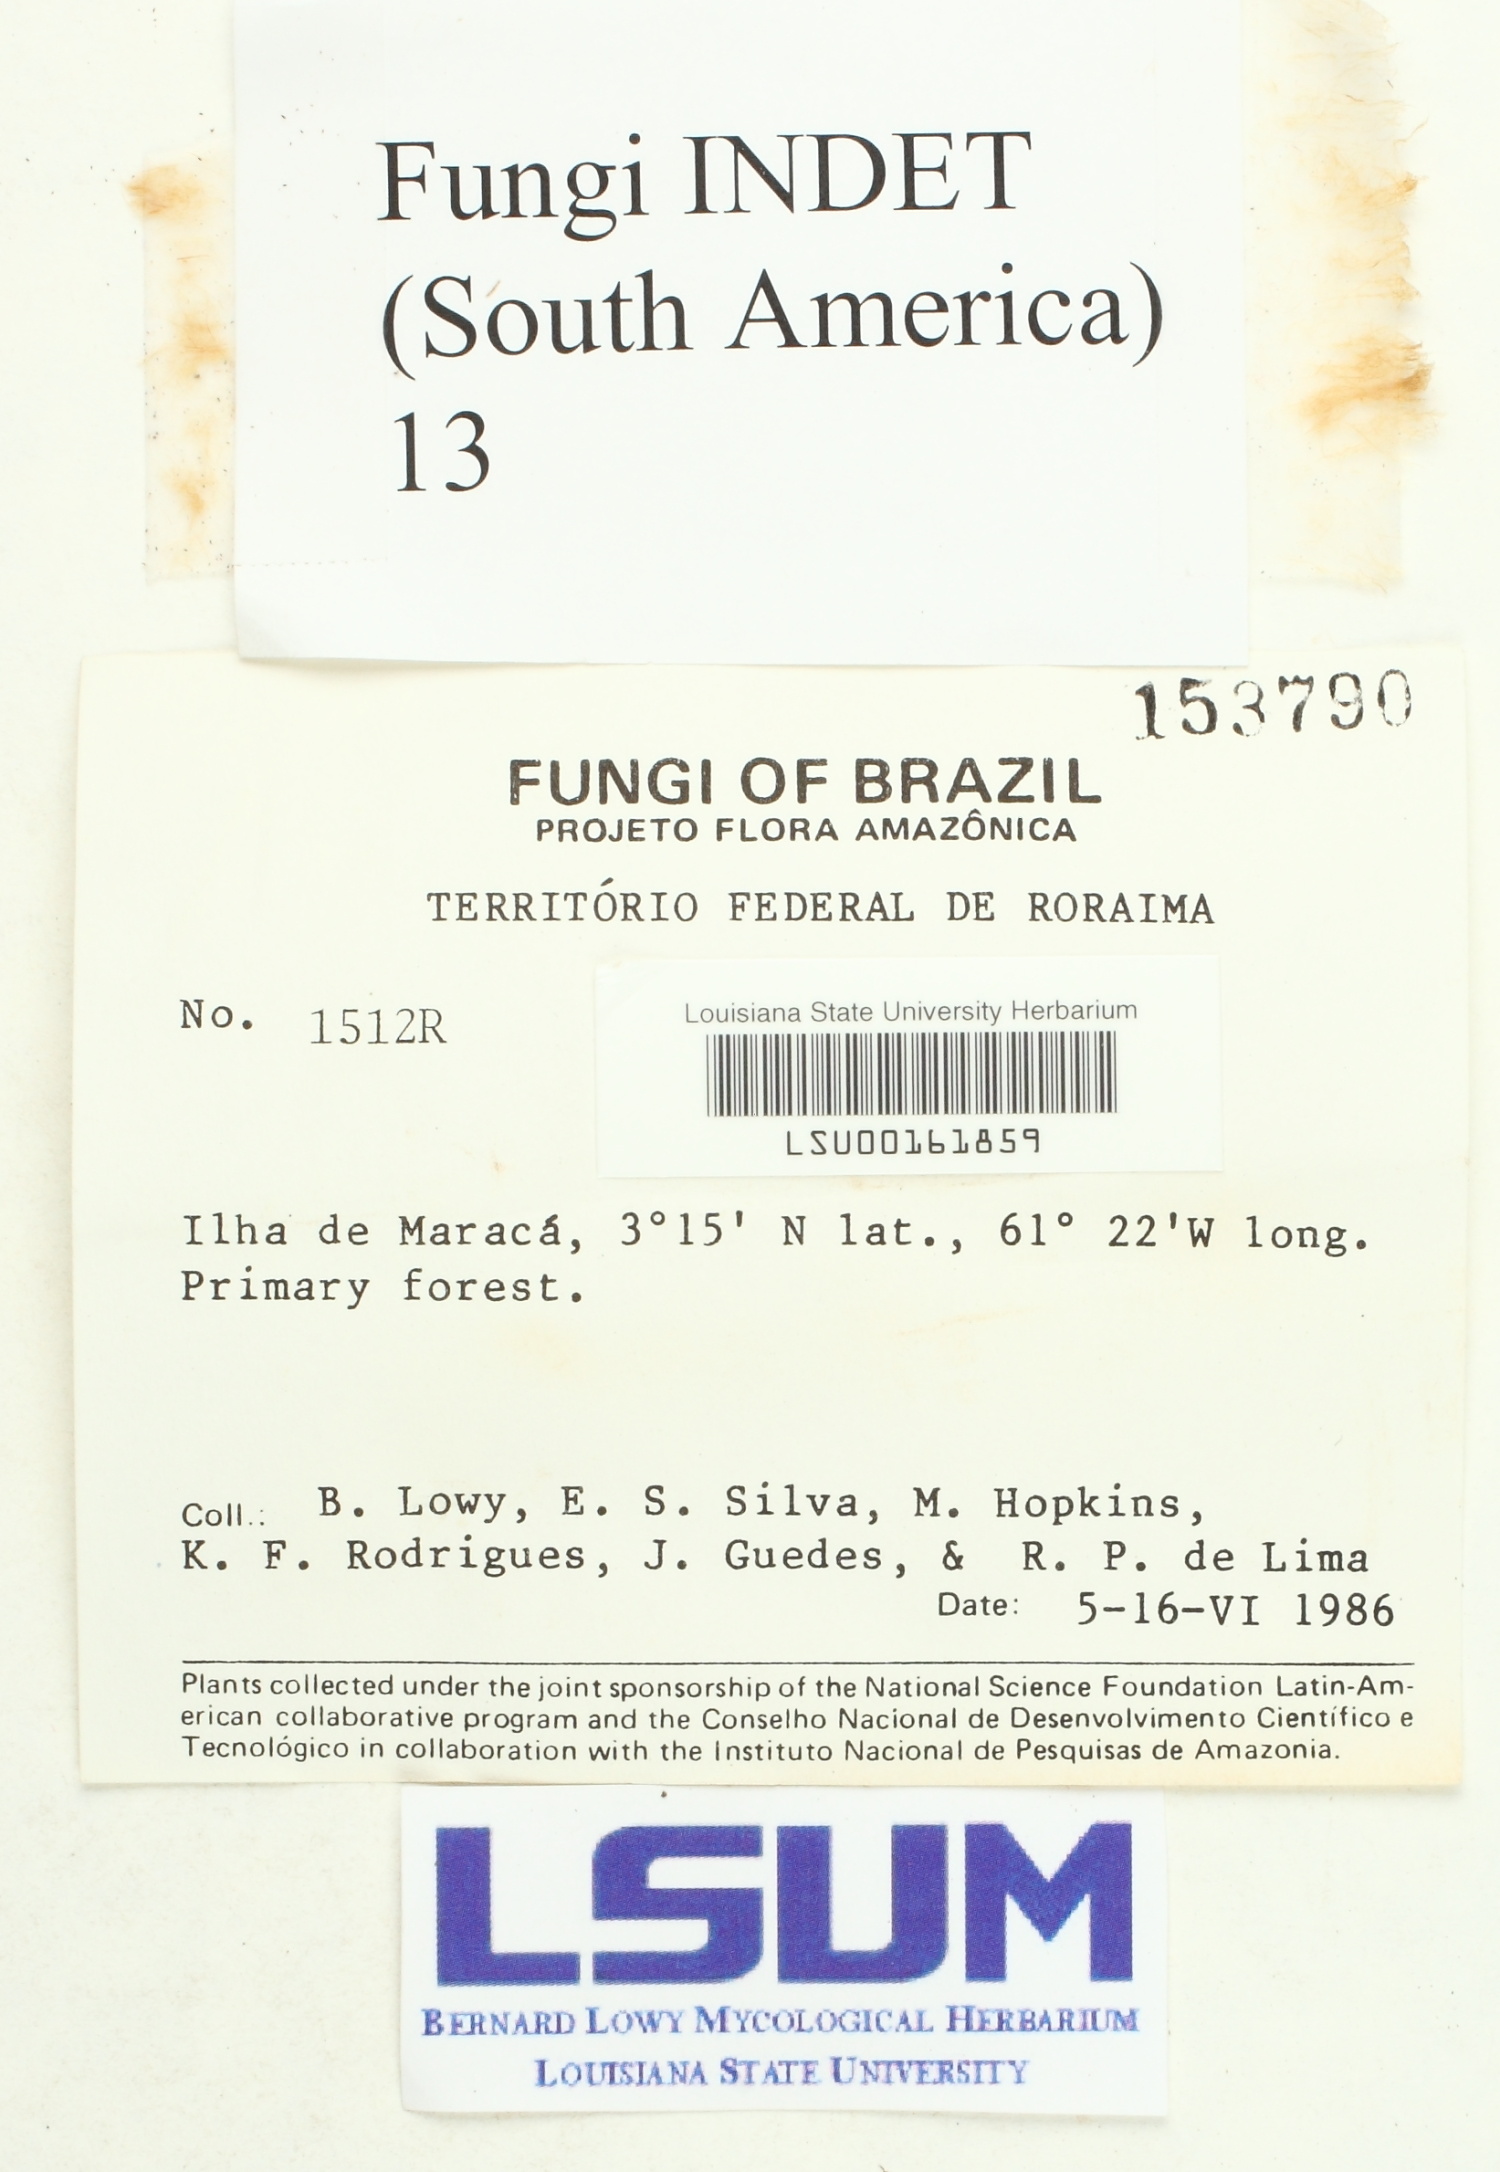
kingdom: Fungi
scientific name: Fungi
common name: Fungi
